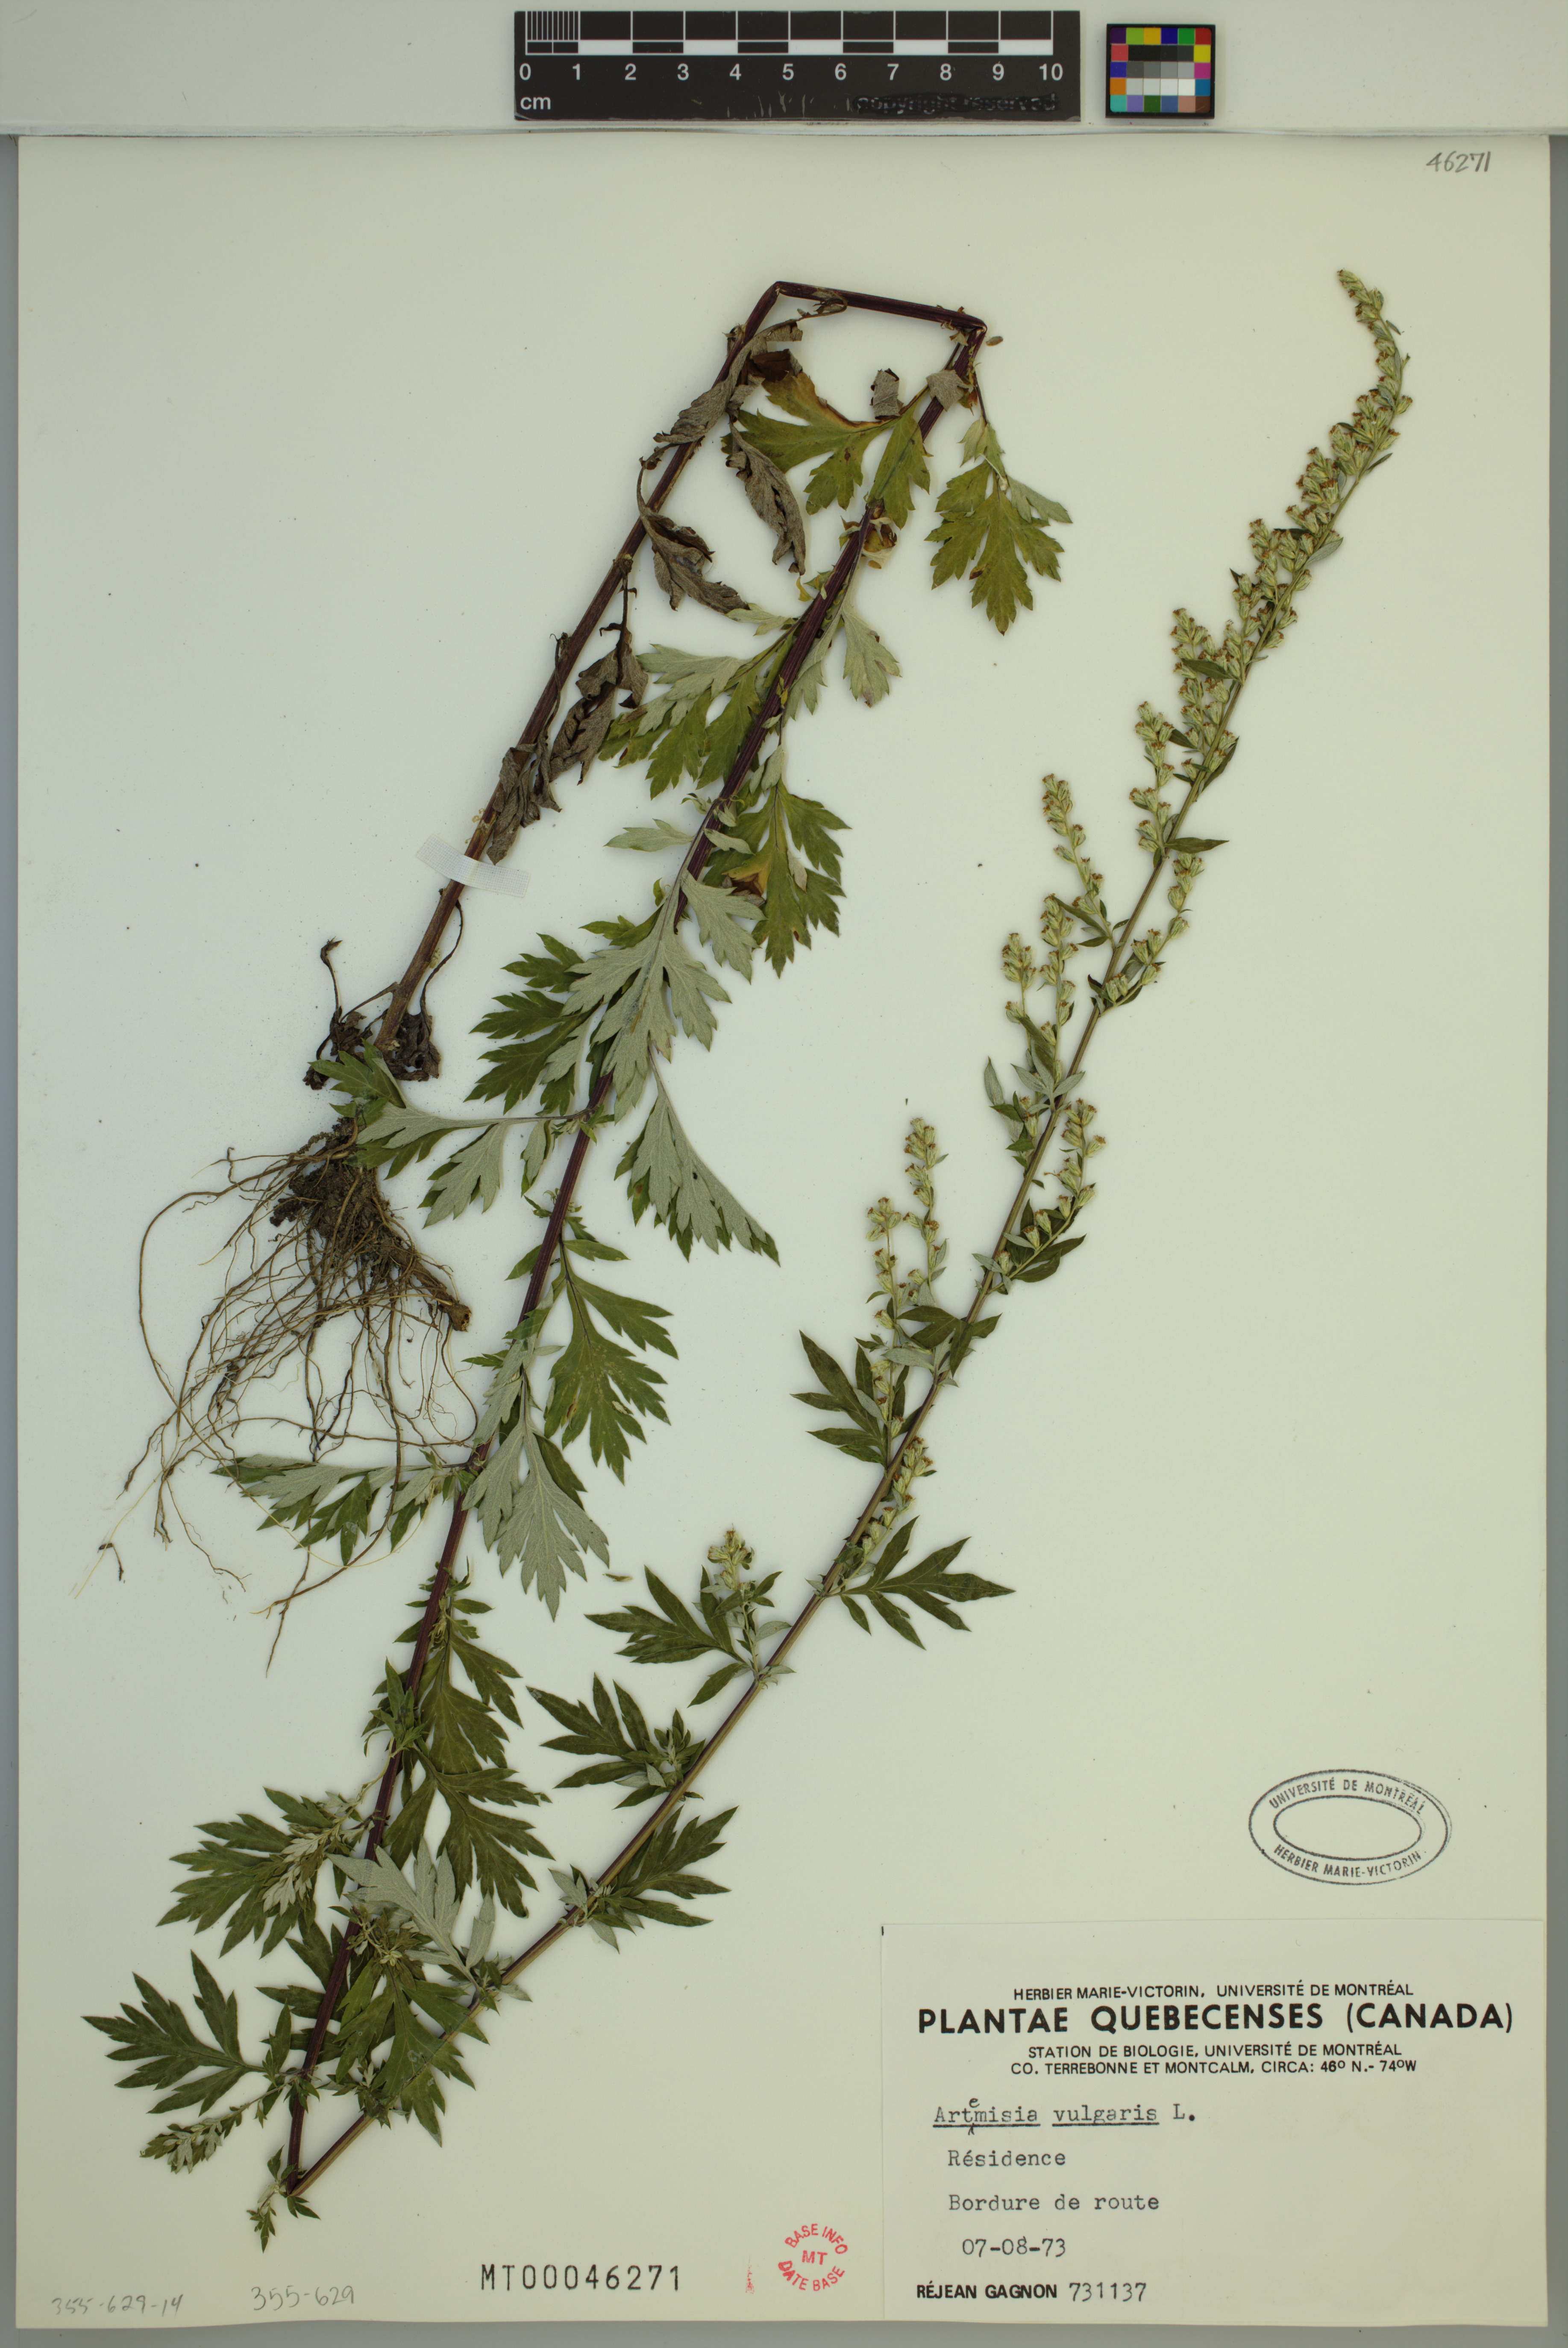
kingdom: Plantae
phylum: Tracheophyta
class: Magnoliopsida
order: Asterales
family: Asteraceae
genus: Artemisia
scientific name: Artemisia vulgaris
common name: Mugwort
